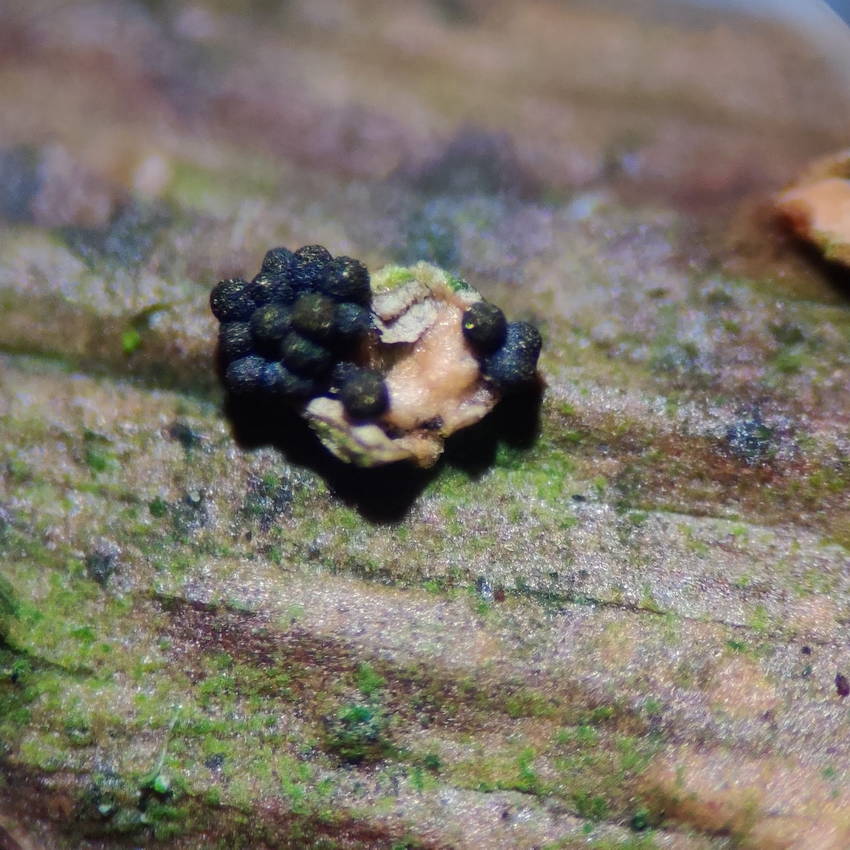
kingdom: Fungi
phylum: Ascomycota
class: Sordariomycetes
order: Coronophorales
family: Nitschkiaceae
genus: Nitschkia
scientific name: Nitschkia parasitans
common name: snyltende skålkerne
